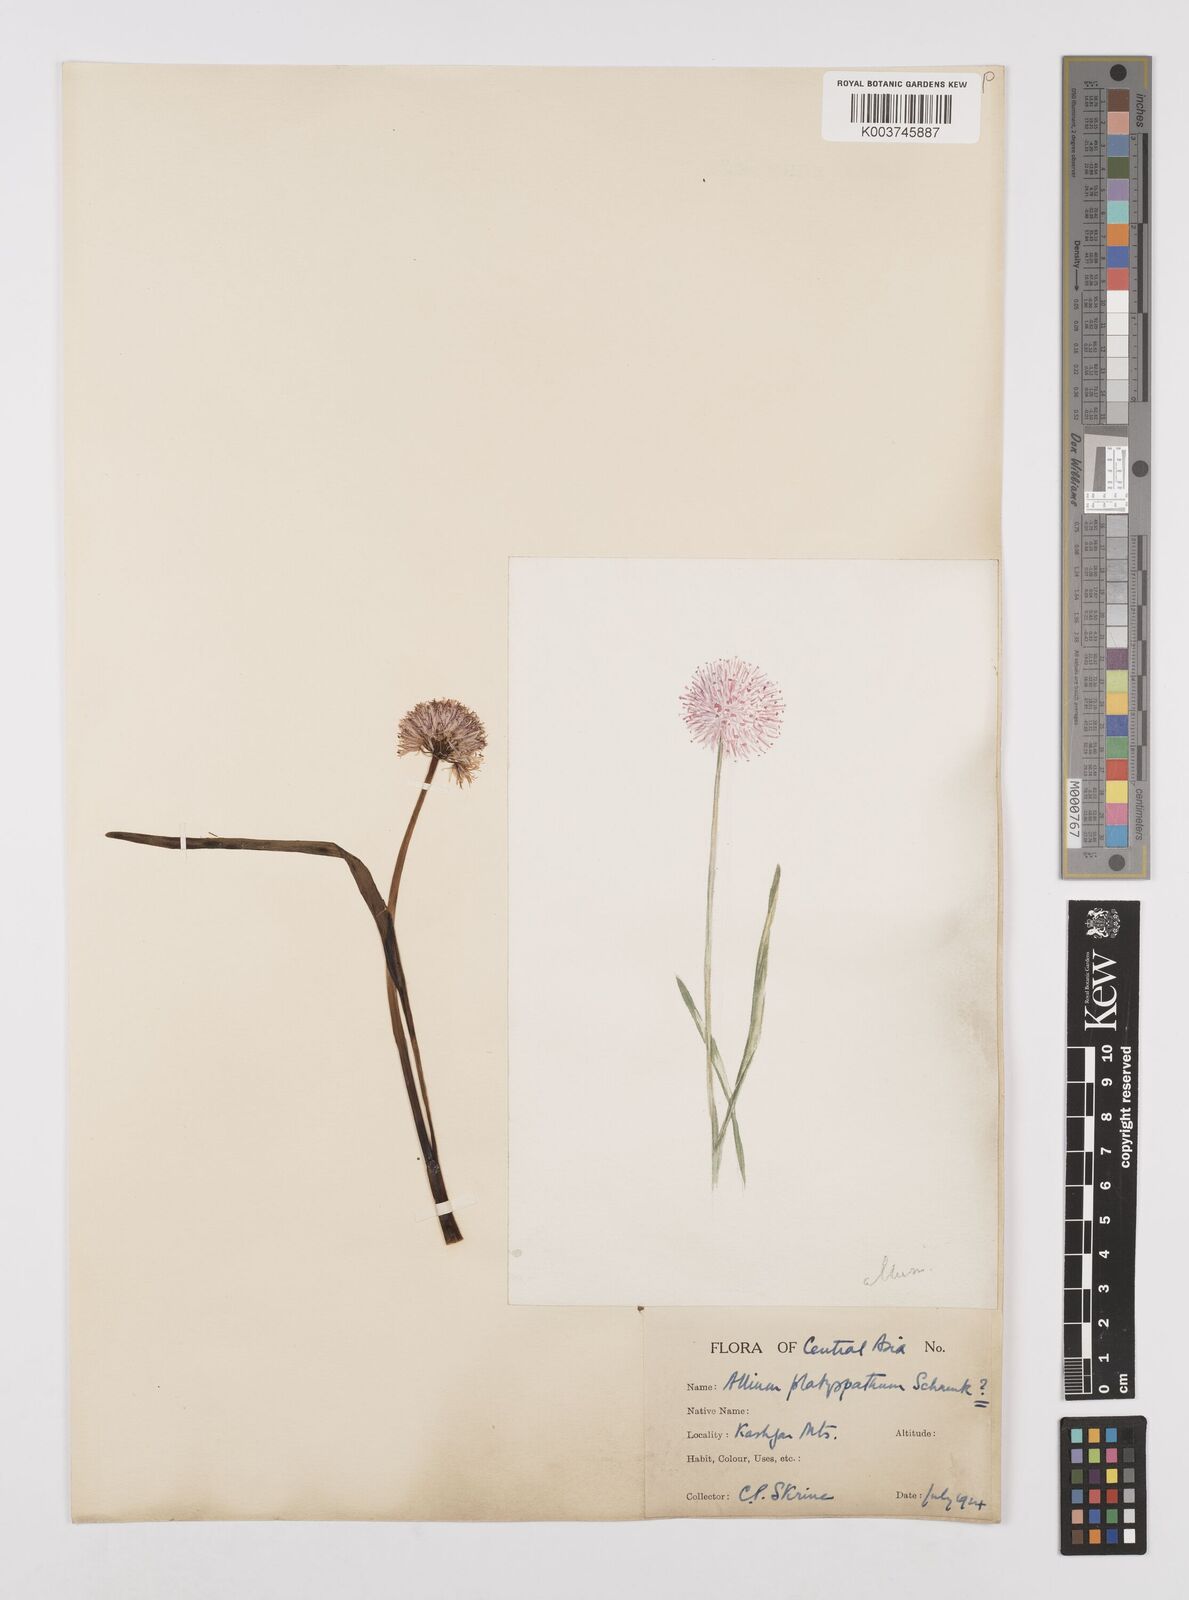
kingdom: Plantae
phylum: Tracheophyta
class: Liliopsida
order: Asparagales
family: Amaryllidaceae
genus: Allium
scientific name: Allium platyspathum
